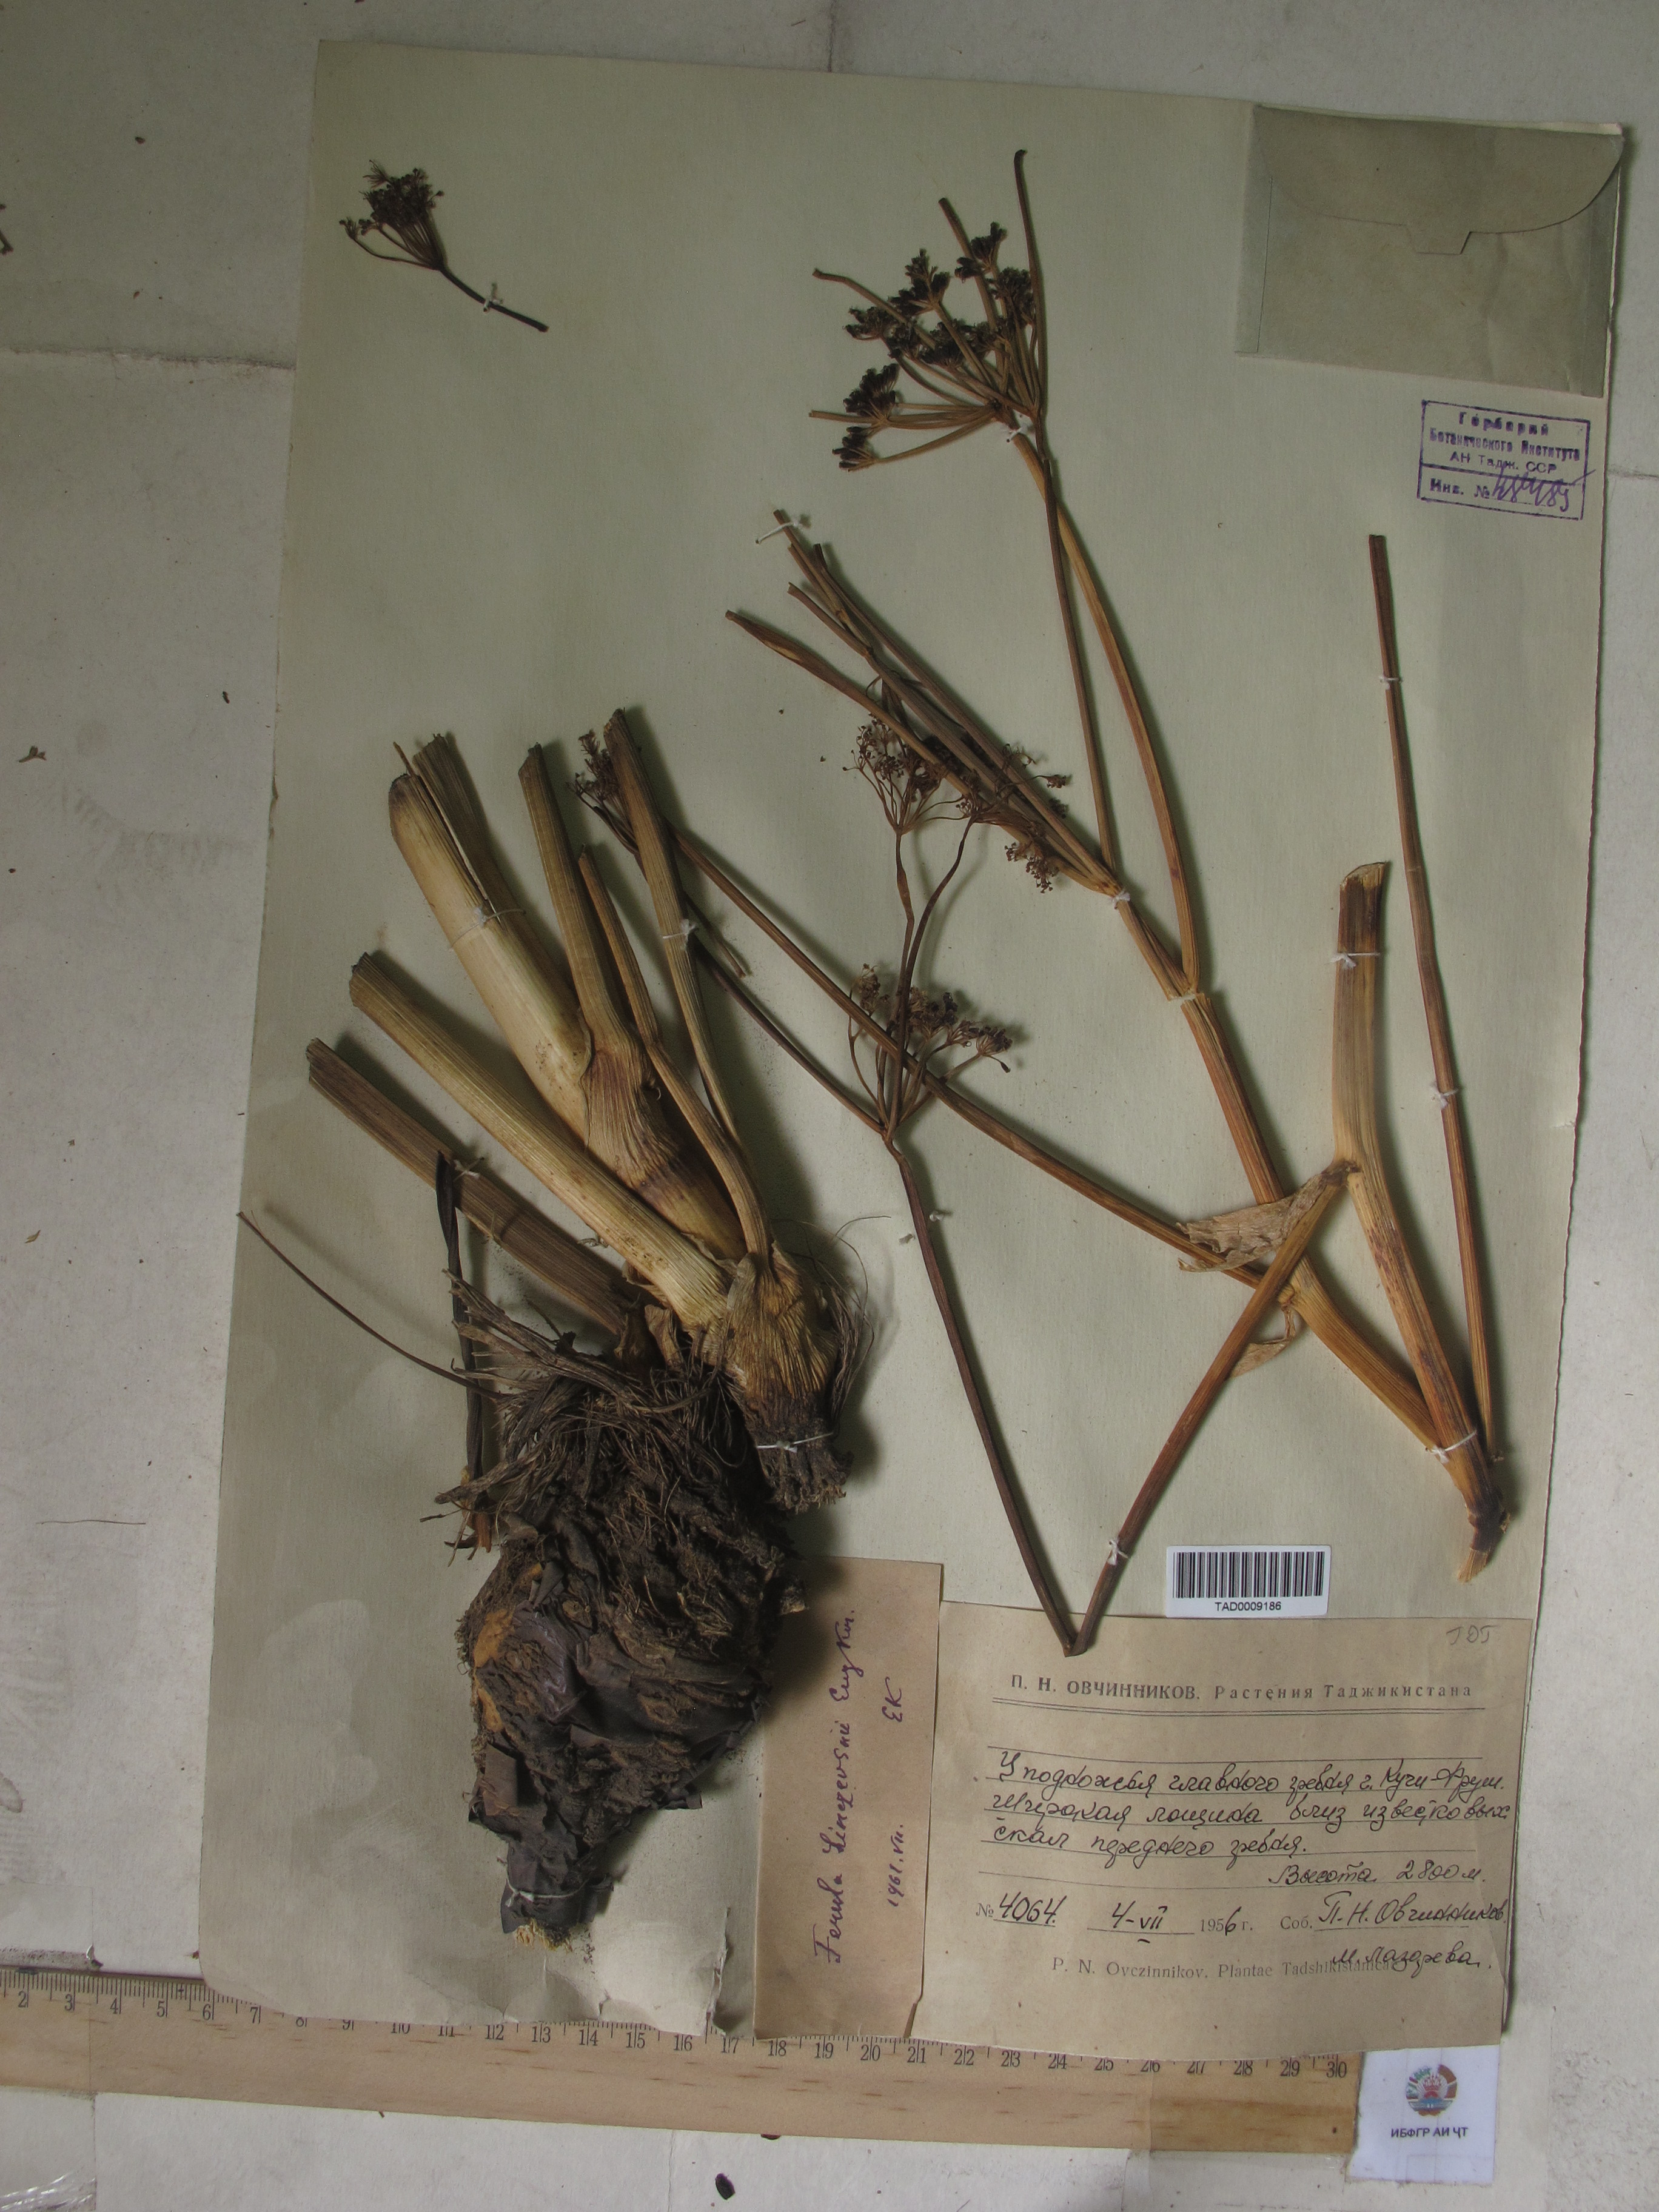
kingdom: Plantae
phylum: Tracheophyta
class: Magnoliopsida
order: Apiales
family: Apiaceae
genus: Ferula
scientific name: Ferula linczevskii
